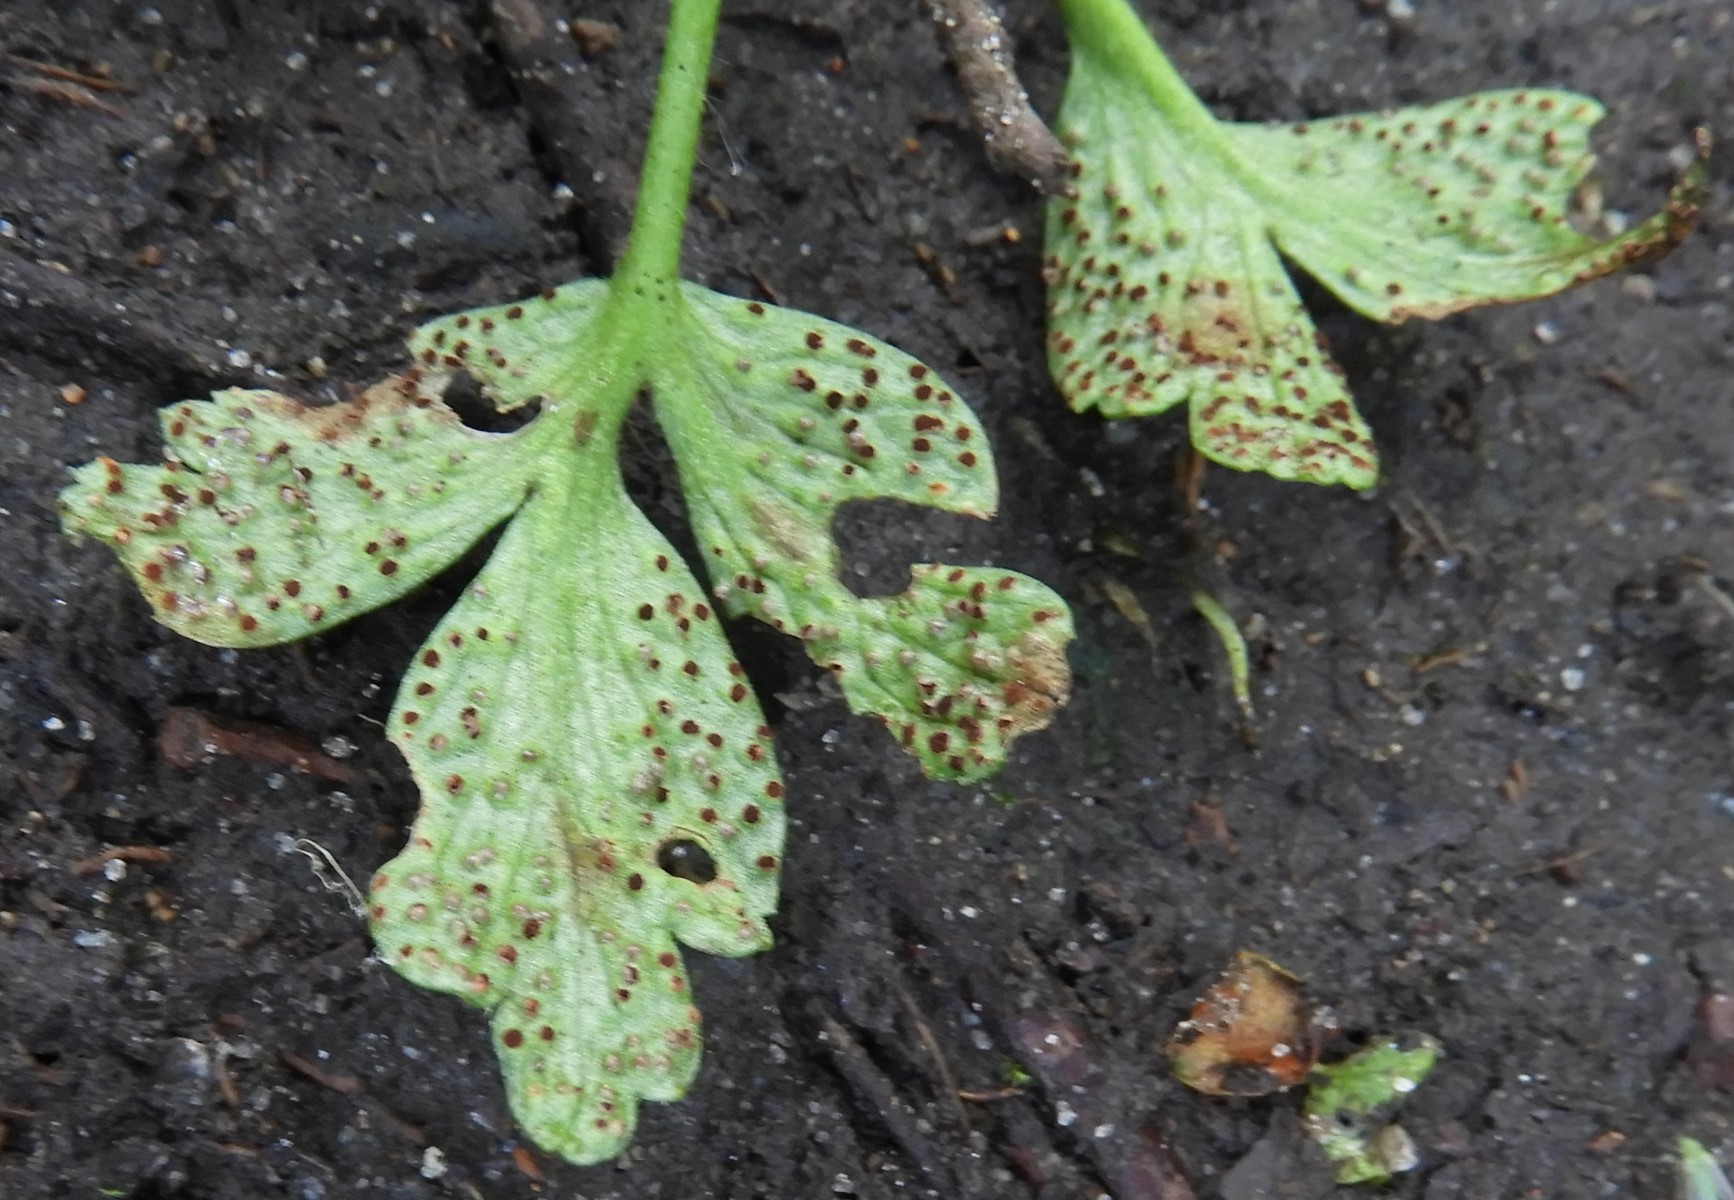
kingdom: Fungi
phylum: Basidiomycota
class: Pucciniomycetes
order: Pucciniales
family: Tranzscheliaceae
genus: Tranzschelia
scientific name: Tranzschelia anemones
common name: anemone-knæksporerust
